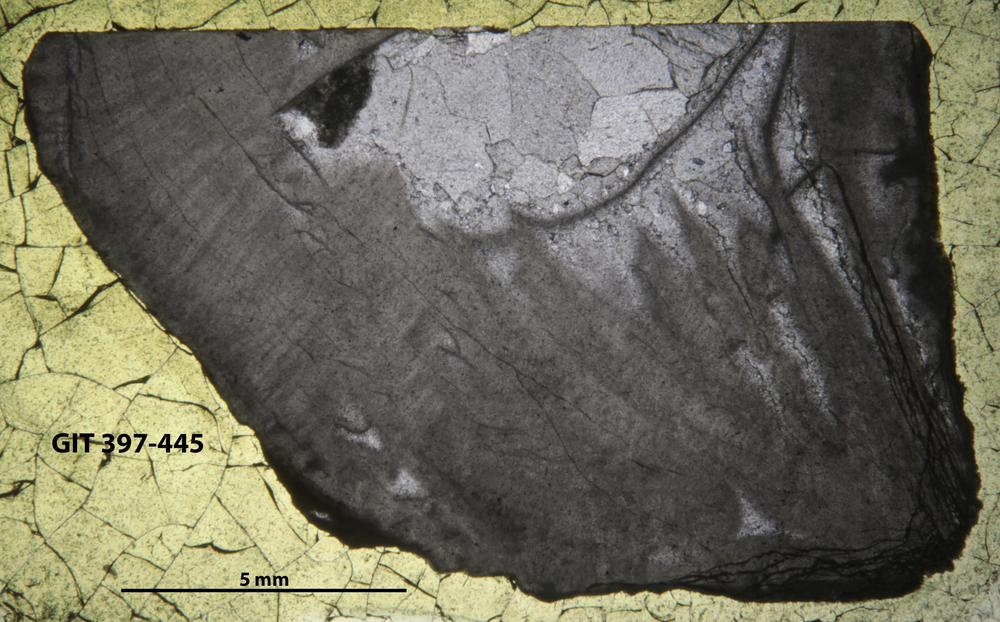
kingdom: Animalia
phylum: Cnidaria
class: Anthozoa
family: Lykophyllidae
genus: Onychophyllum
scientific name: Onychophyllum
